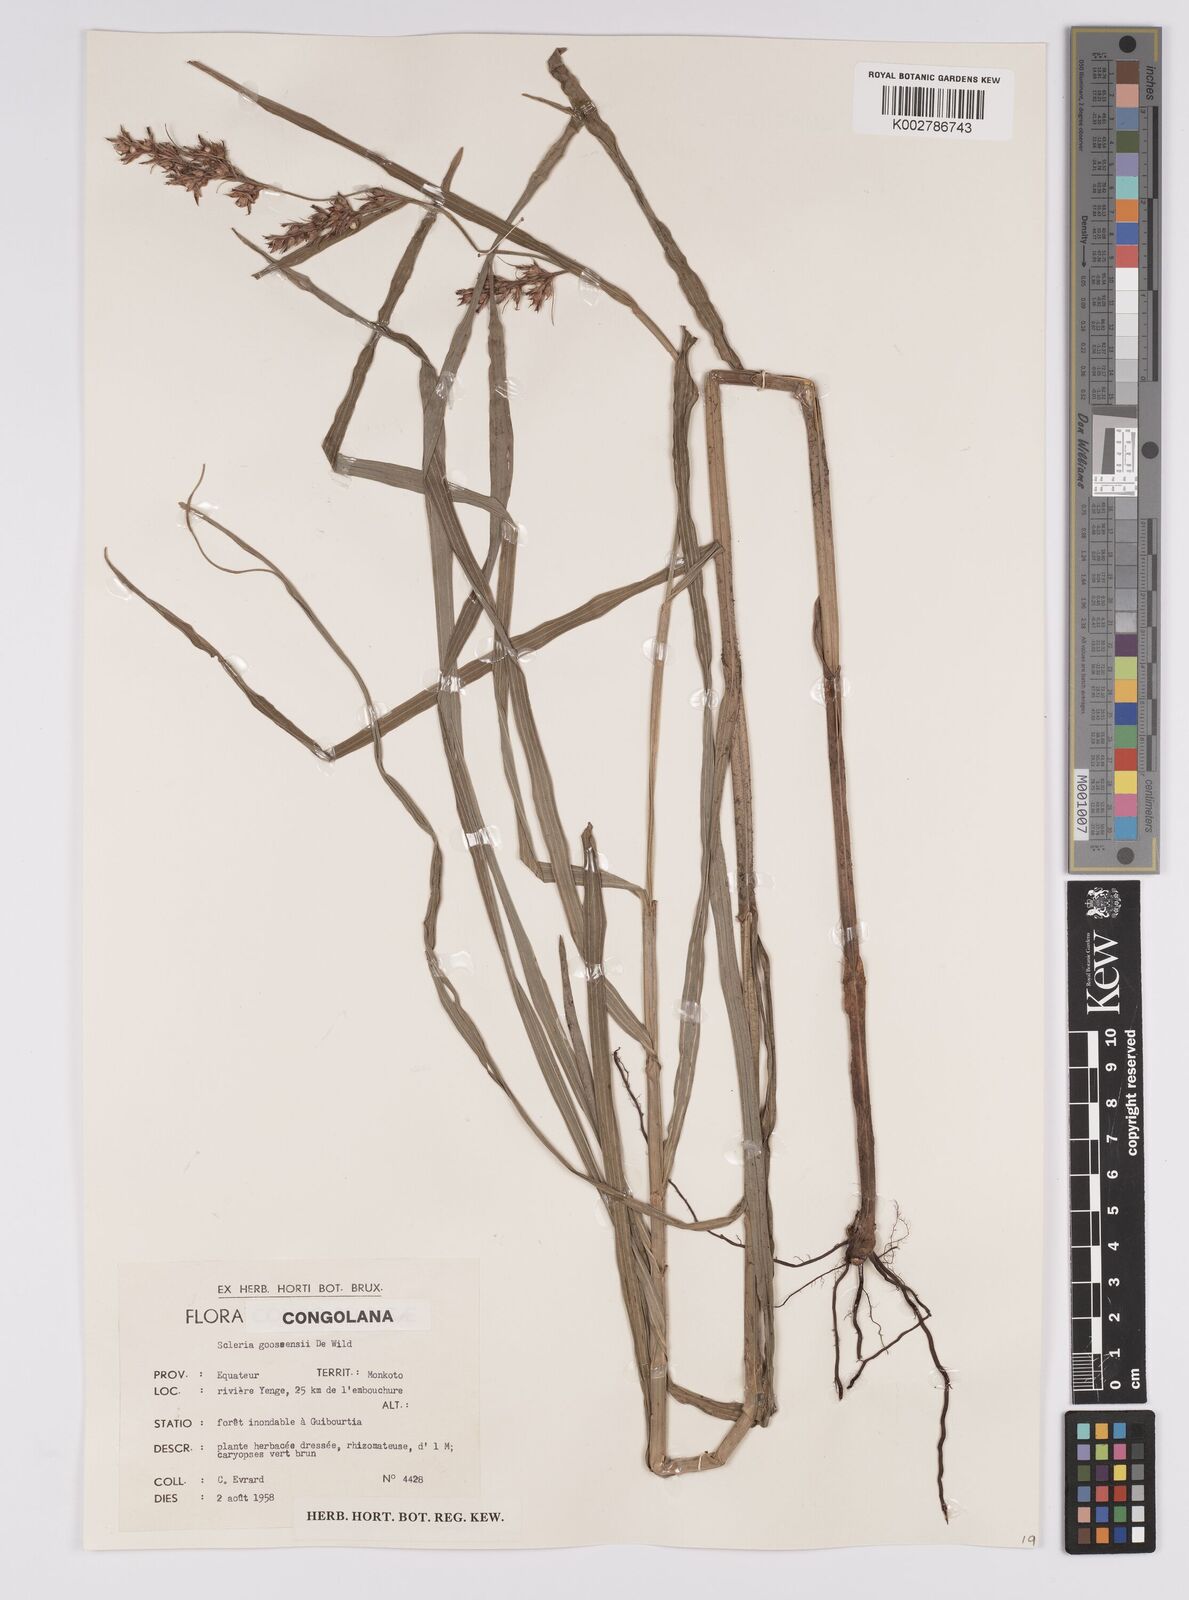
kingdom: Plantae
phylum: Tracheophyta
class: Liliopsida
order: Poales
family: Cyperaceae
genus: Scleria
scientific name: Scleria goossensii
